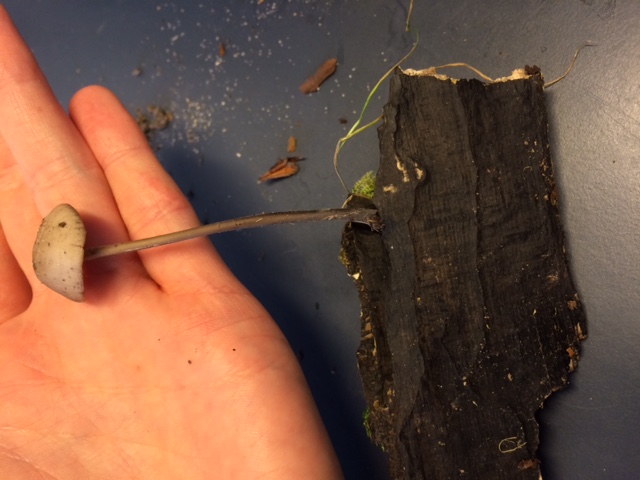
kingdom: Fungi
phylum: Basidiomycota
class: Agaricomycetes
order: Agaricales
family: Omphalotaceae
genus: Mycetinis
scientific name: Mycetinis alliaceus
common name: stor løghat
